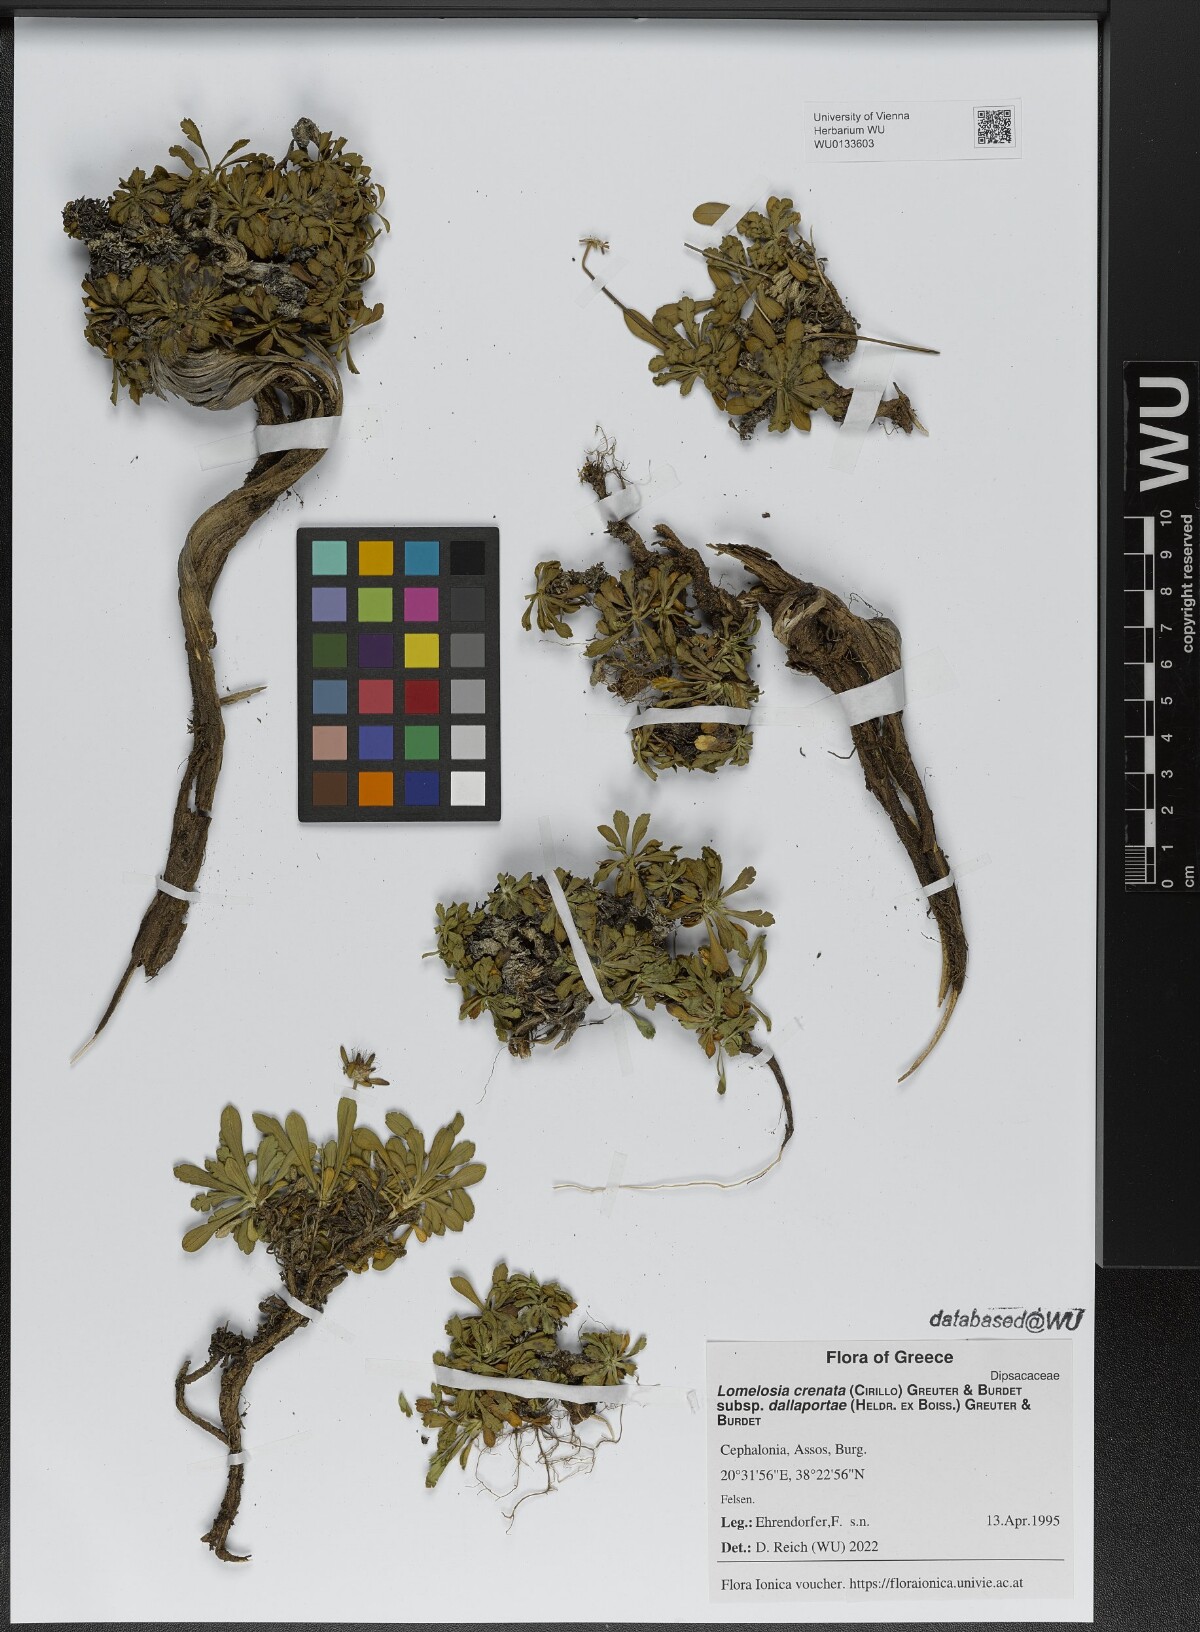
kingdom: Plantae
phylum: Tracheophyta
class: Magnoliopsida
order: Dipsacales
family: Caprifoliaceae
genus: Lomelosia
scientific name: Lomelosia crenata
